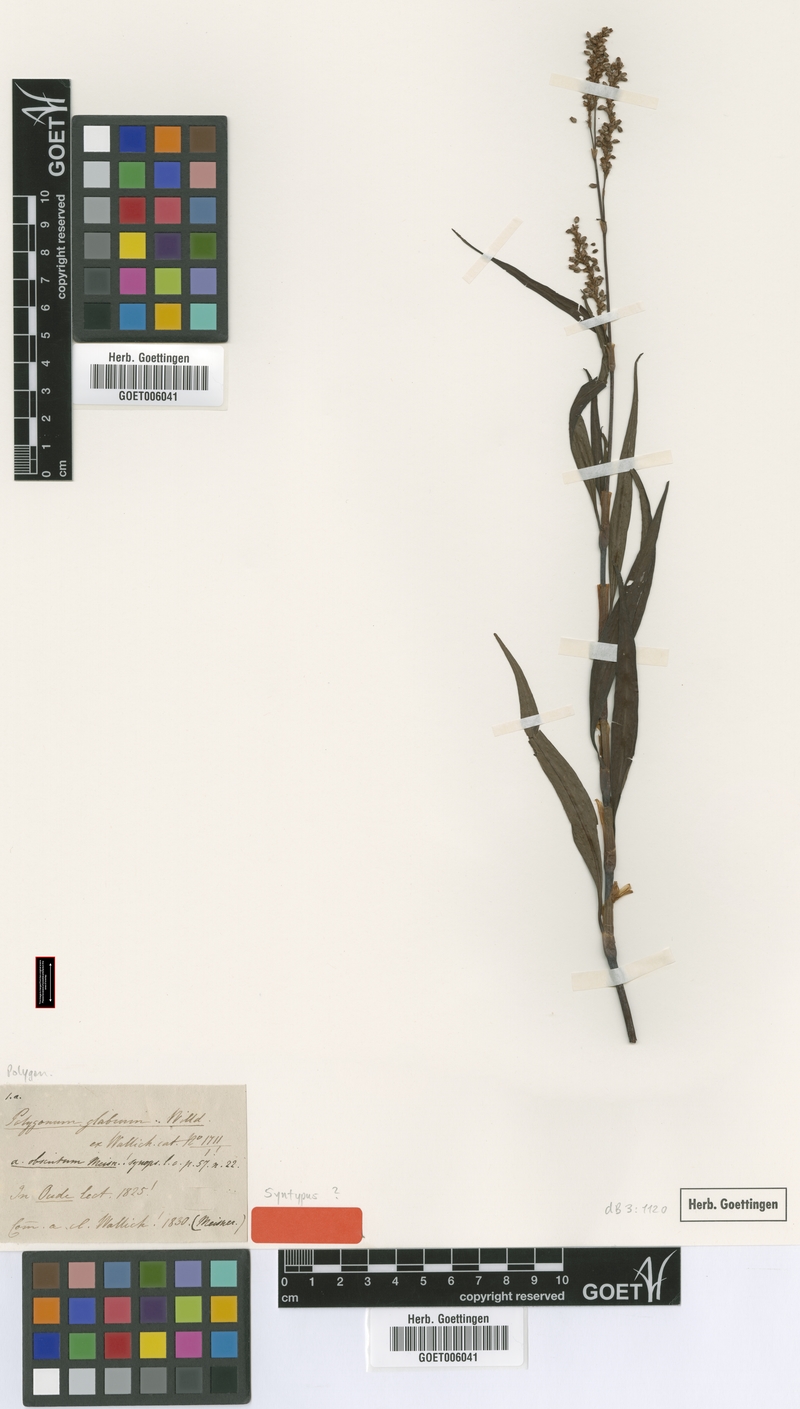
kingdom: Plantae
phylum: Tracheophyta
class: Magnoliopsida
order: Caryophyllales
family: Polygonaceae
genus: Persicaria
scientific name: Persicaria glabra
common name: Denseflower knotweed
